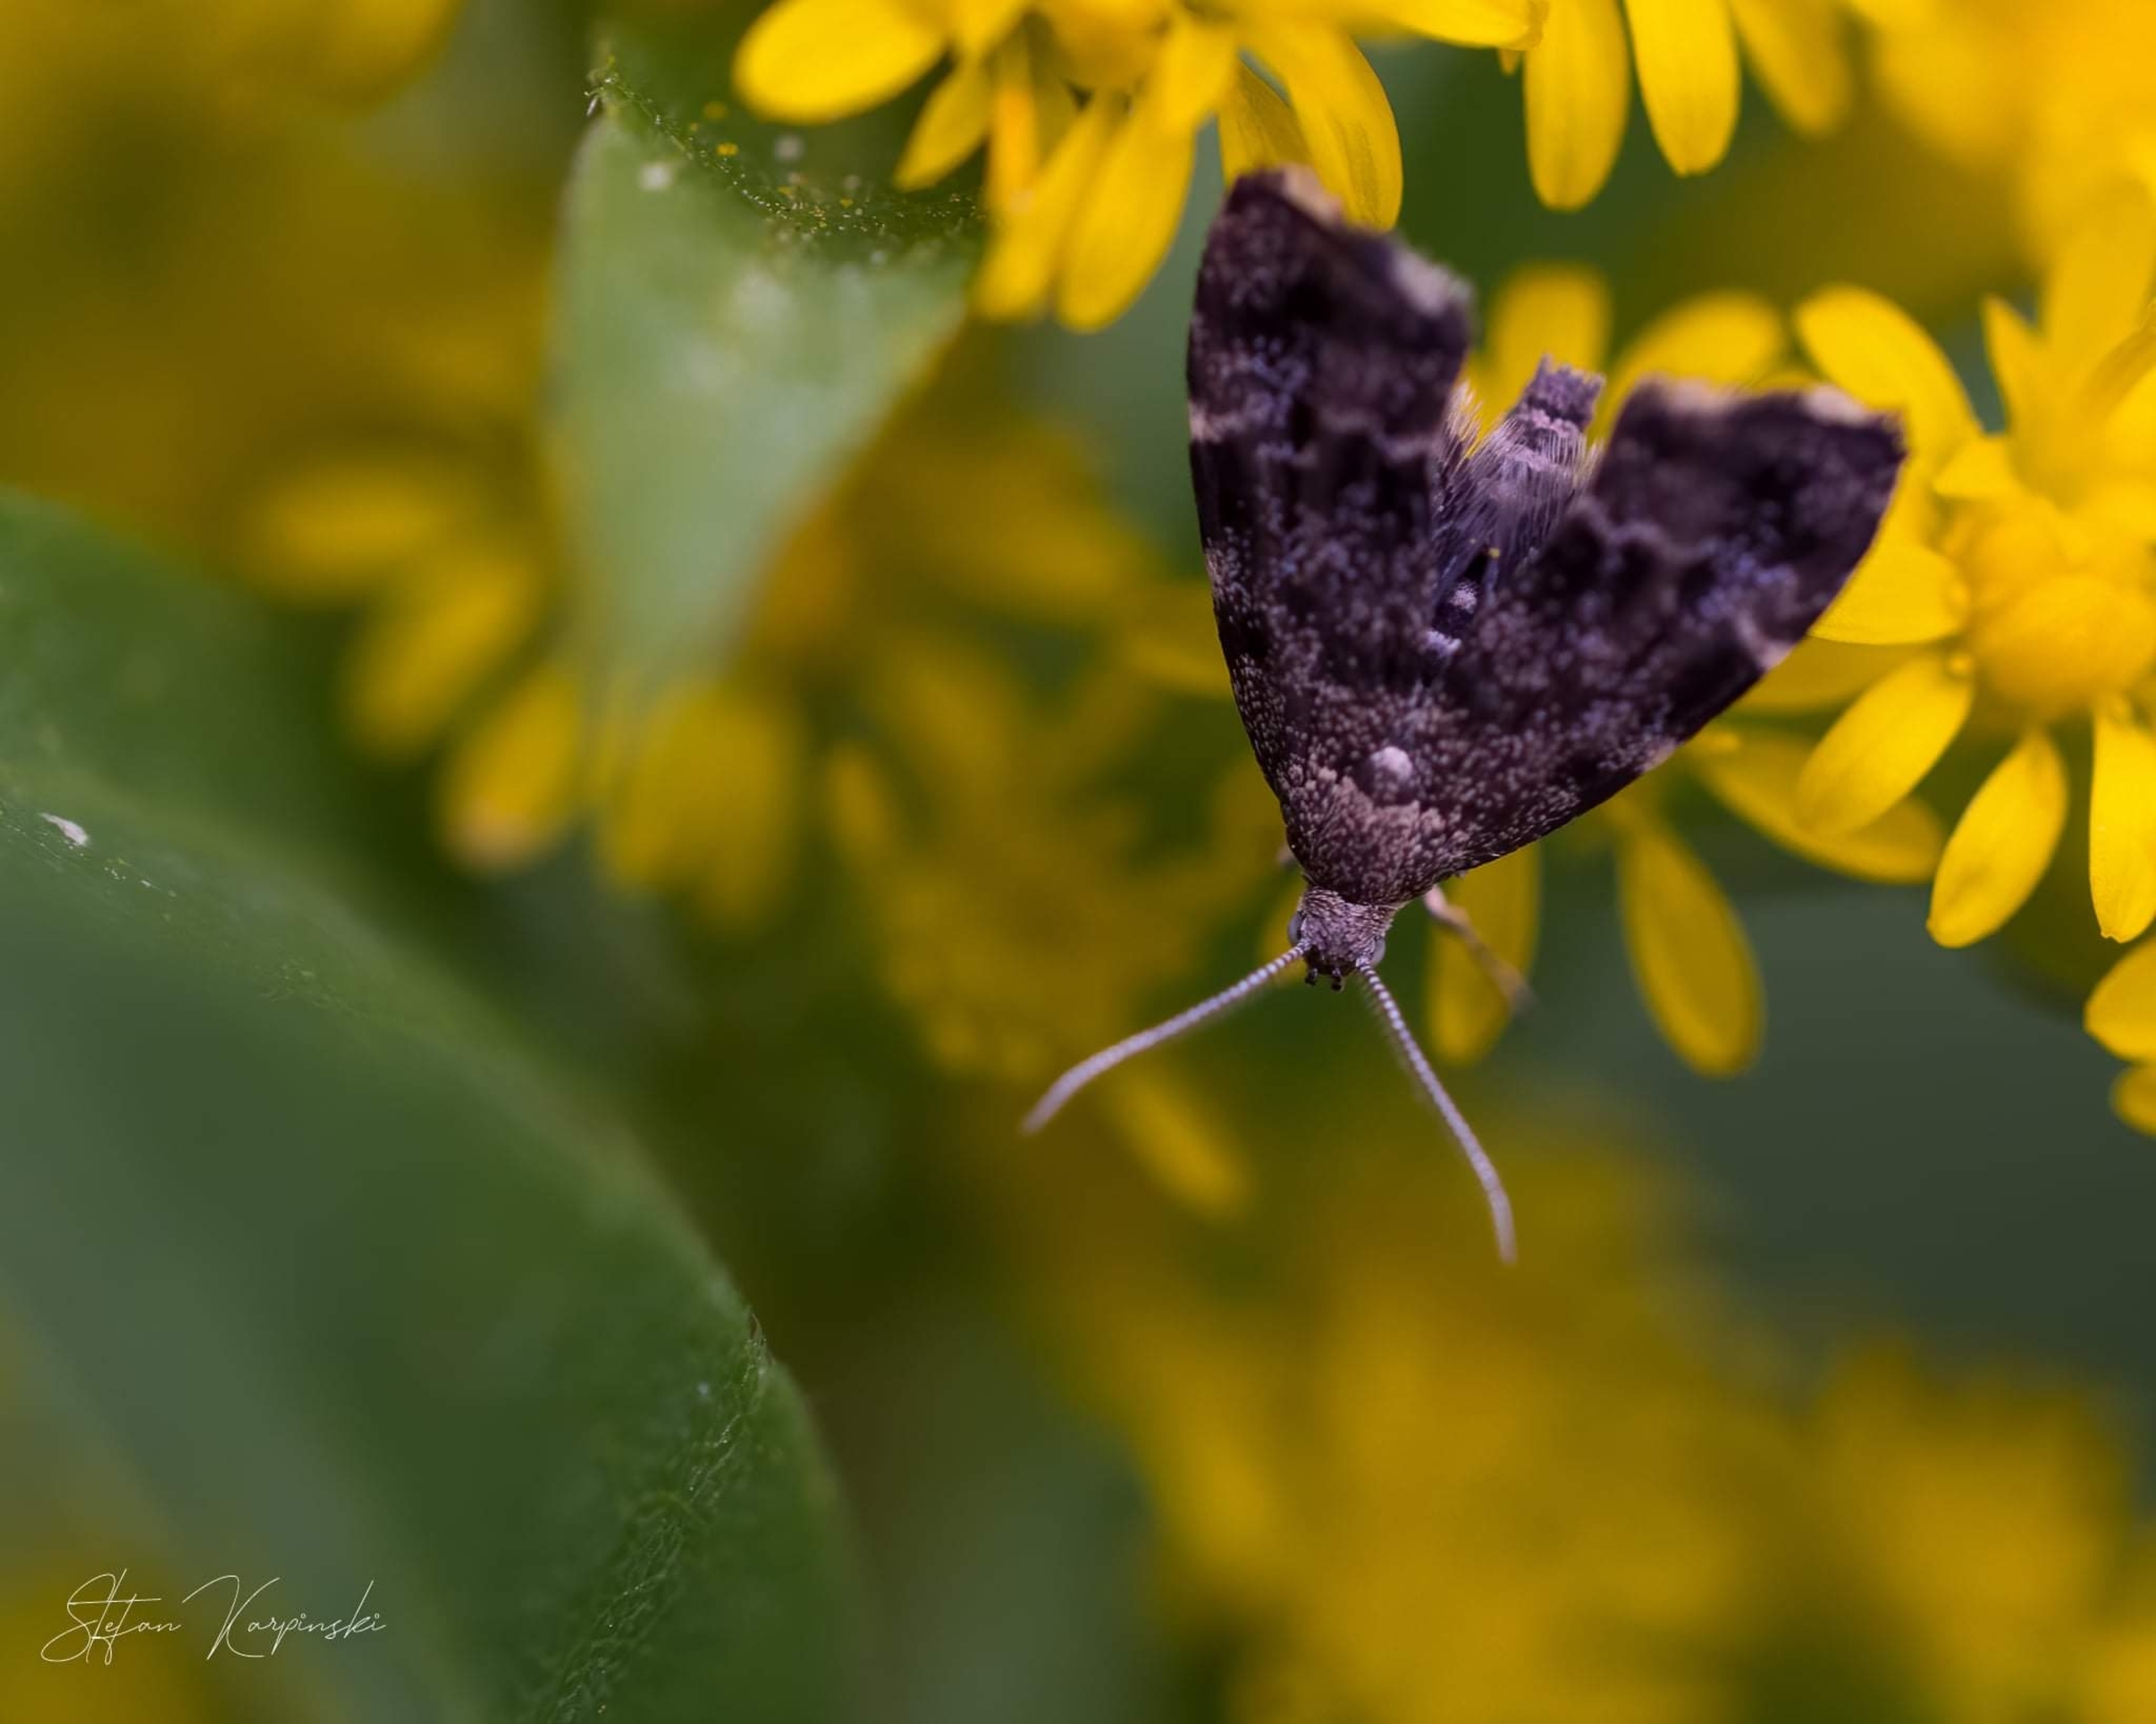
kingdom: Animalia
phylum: Arthropoda
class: Insecta
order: Lepidoptera
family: Choreutidae
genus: Anthophila
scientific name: Anthophila fabriciana
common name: Bredvinget nældevikler
